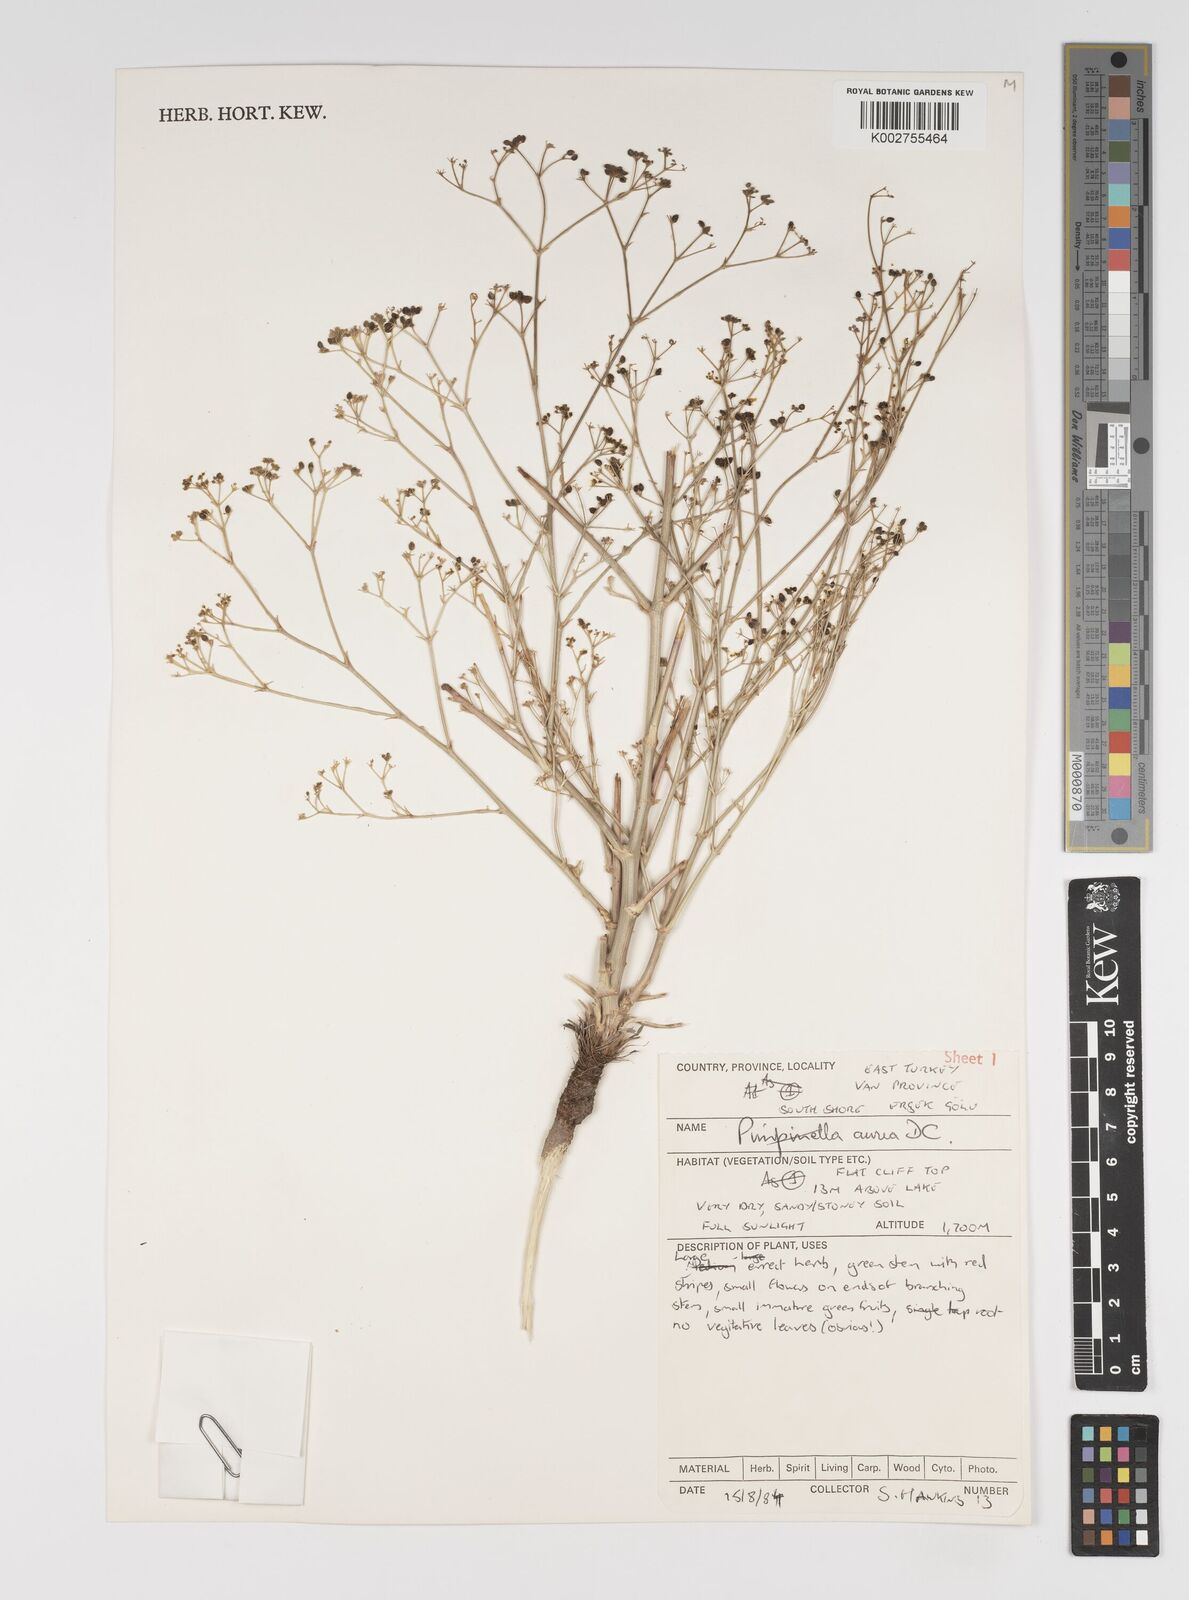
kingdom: Plantae
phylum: Tracheophyta
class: Magnoliopsida
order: Apiales
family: Apiaceae
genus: Pimpinella
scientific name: Pimpinella aurea
